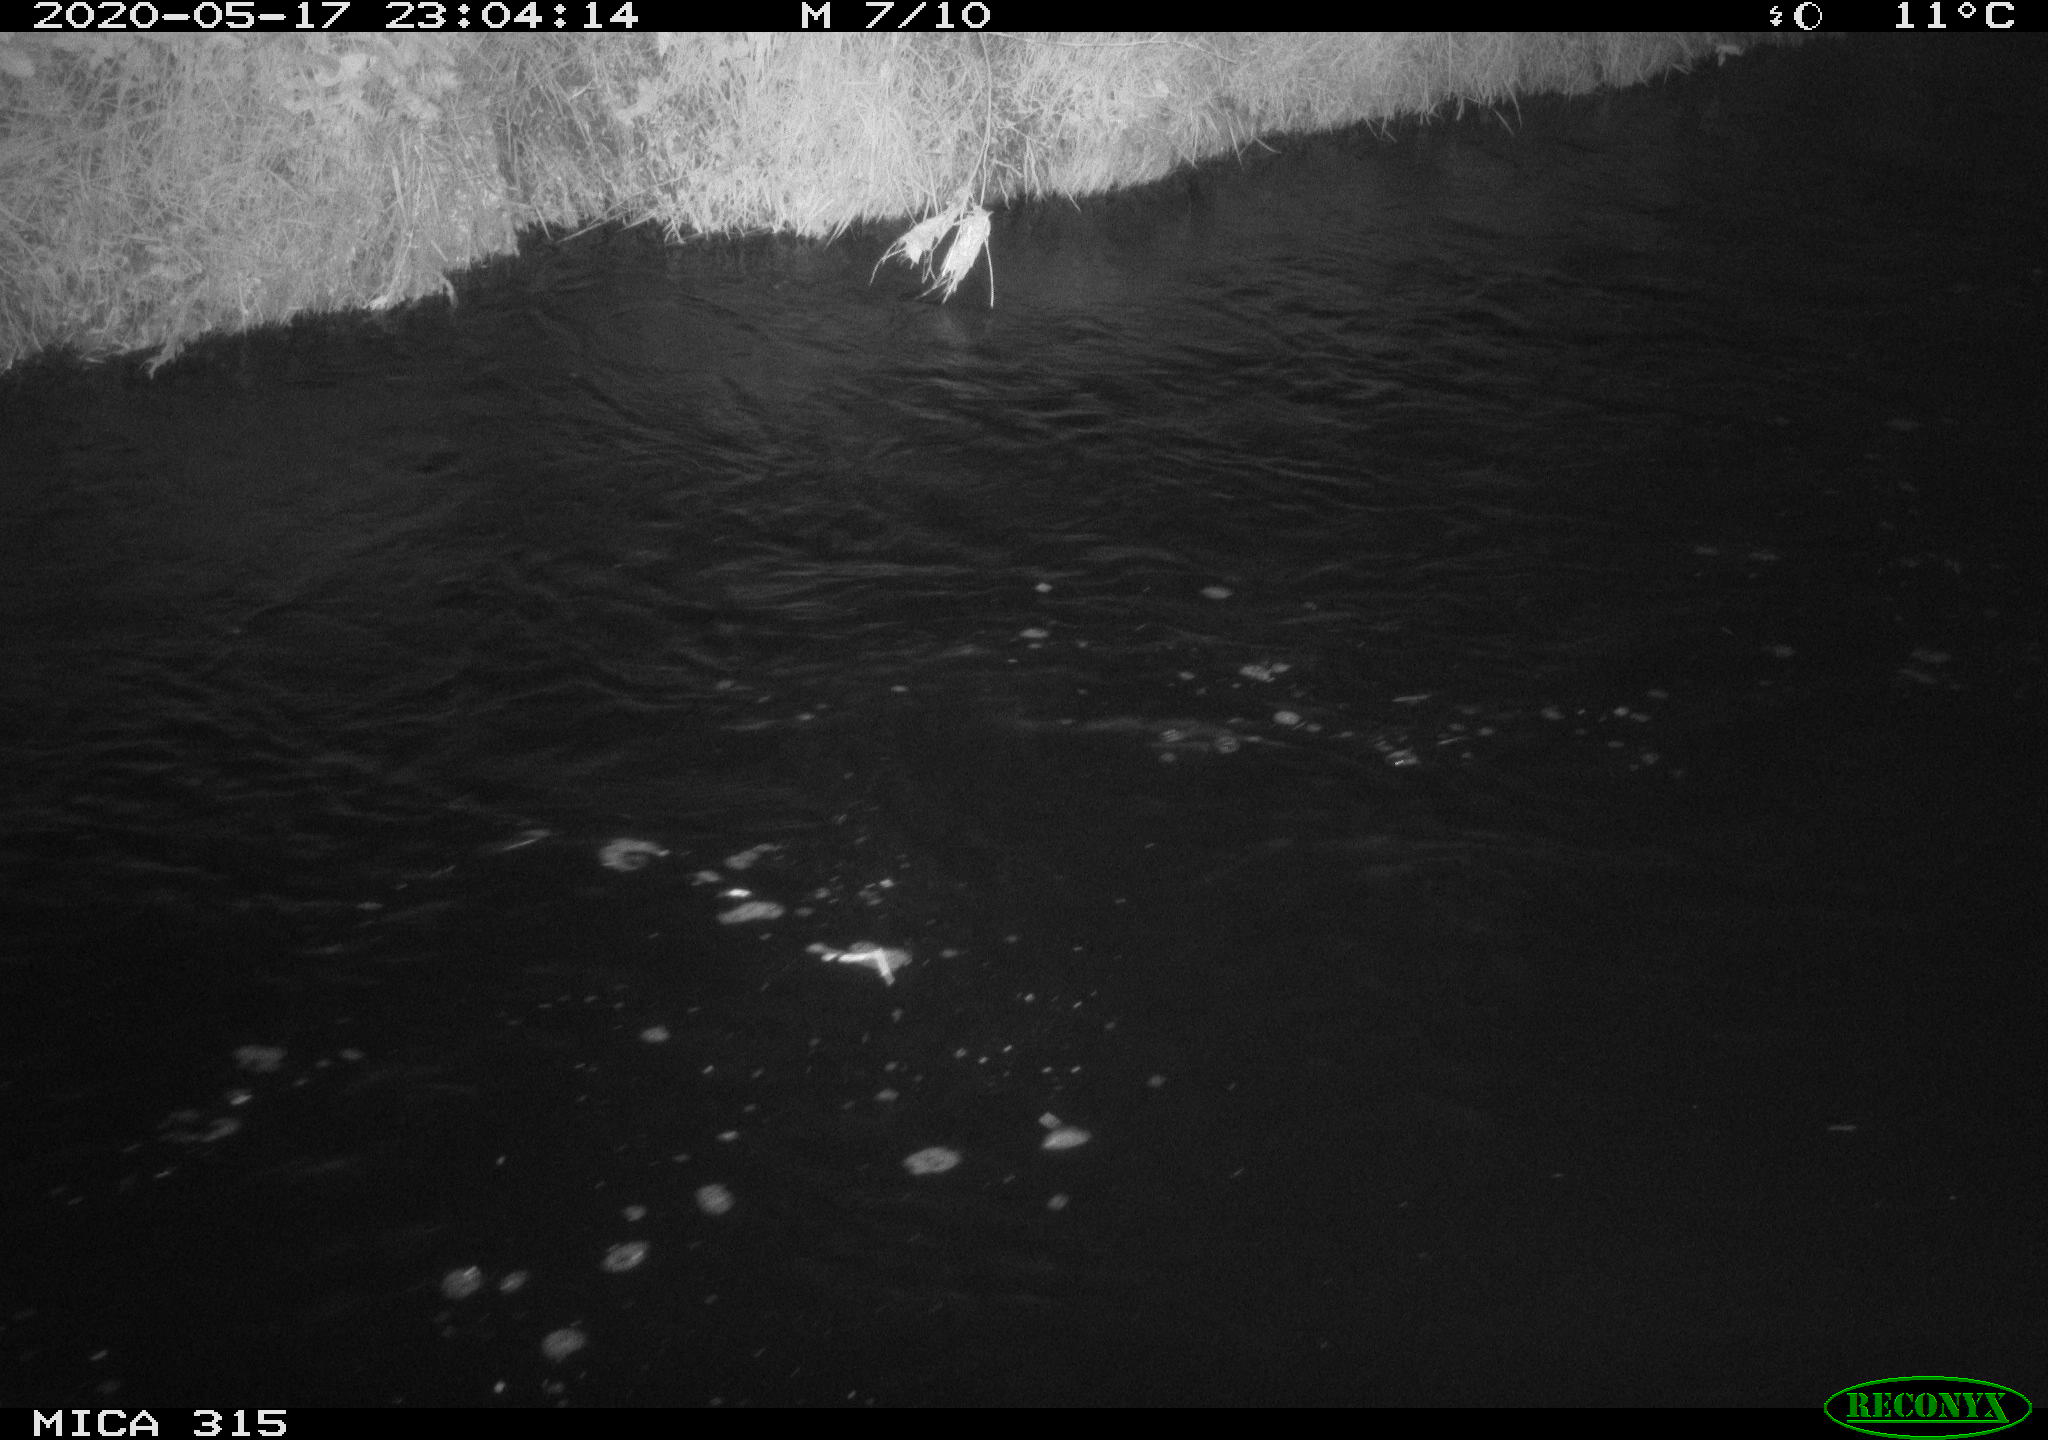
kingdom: Animalia
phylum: Chordata
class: Aves
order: Anseriformes
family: Anatidae
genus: Anas
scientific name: Anas platyrhynchos
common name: Mallard
